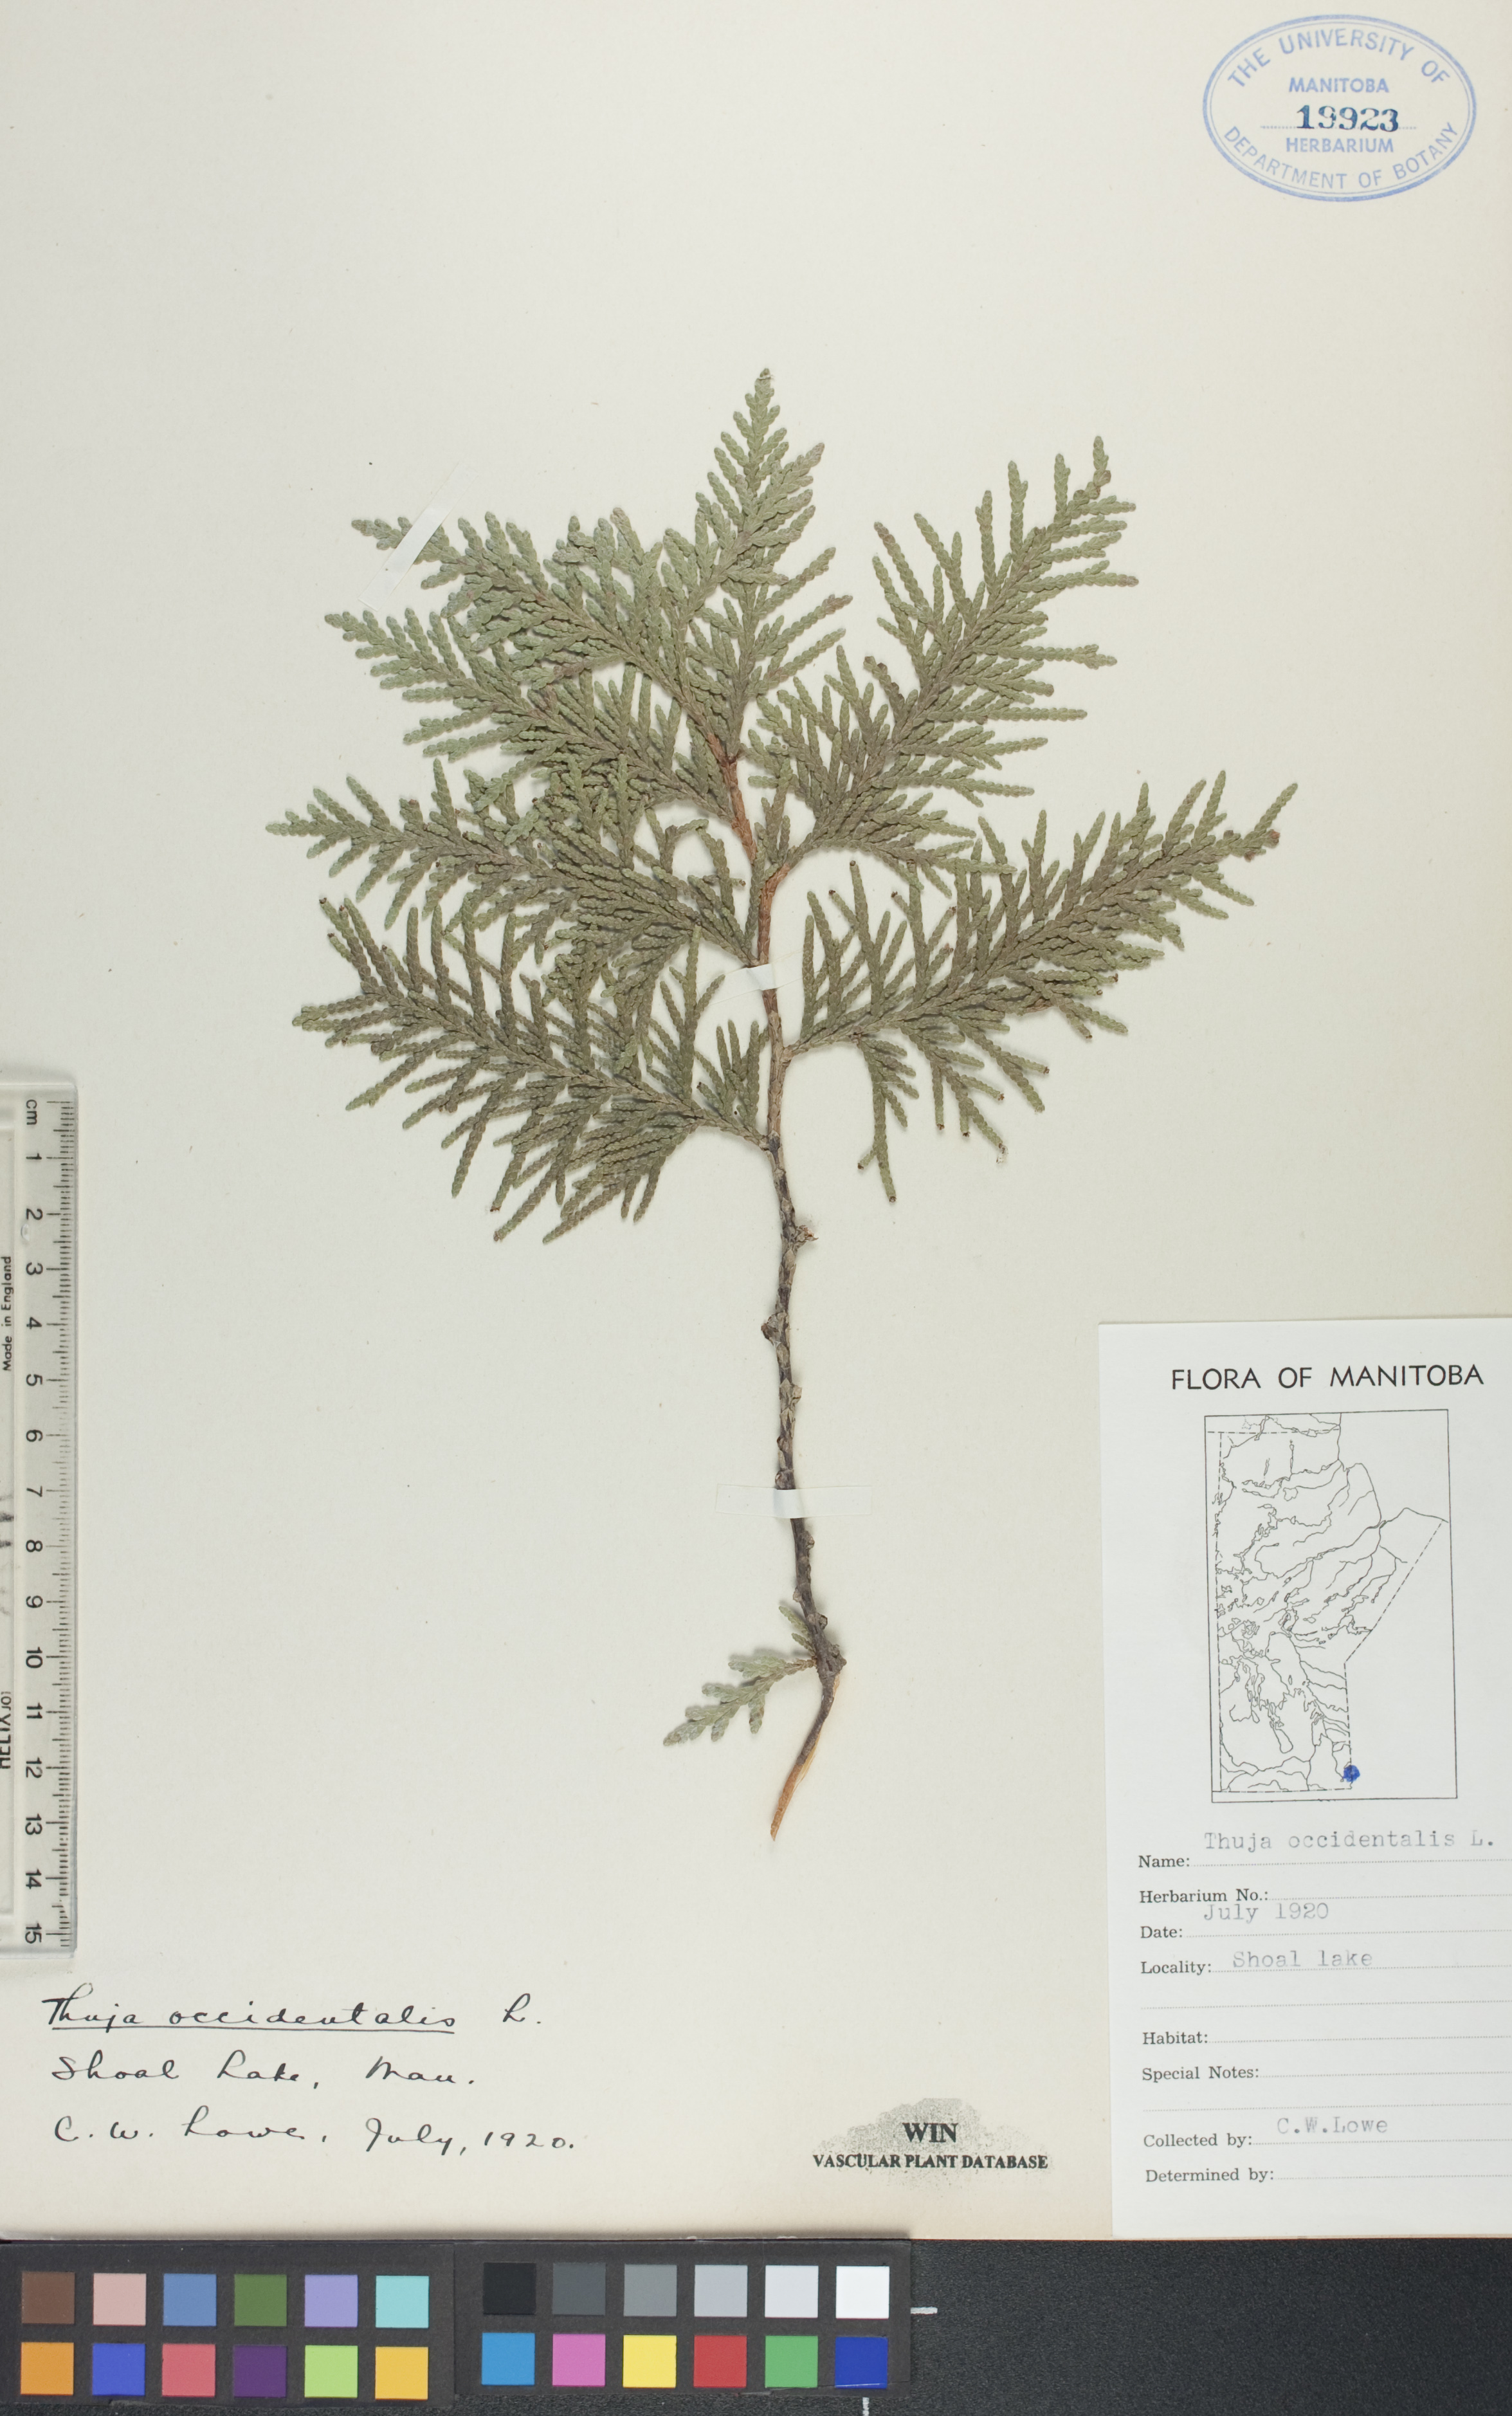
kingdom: Plantae
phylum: Tracheophyta
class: Pinopsida
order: Pinales
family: Cupressaceae
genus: Thuja
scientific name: Thuja occidentalis
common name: Northern white-cedar
